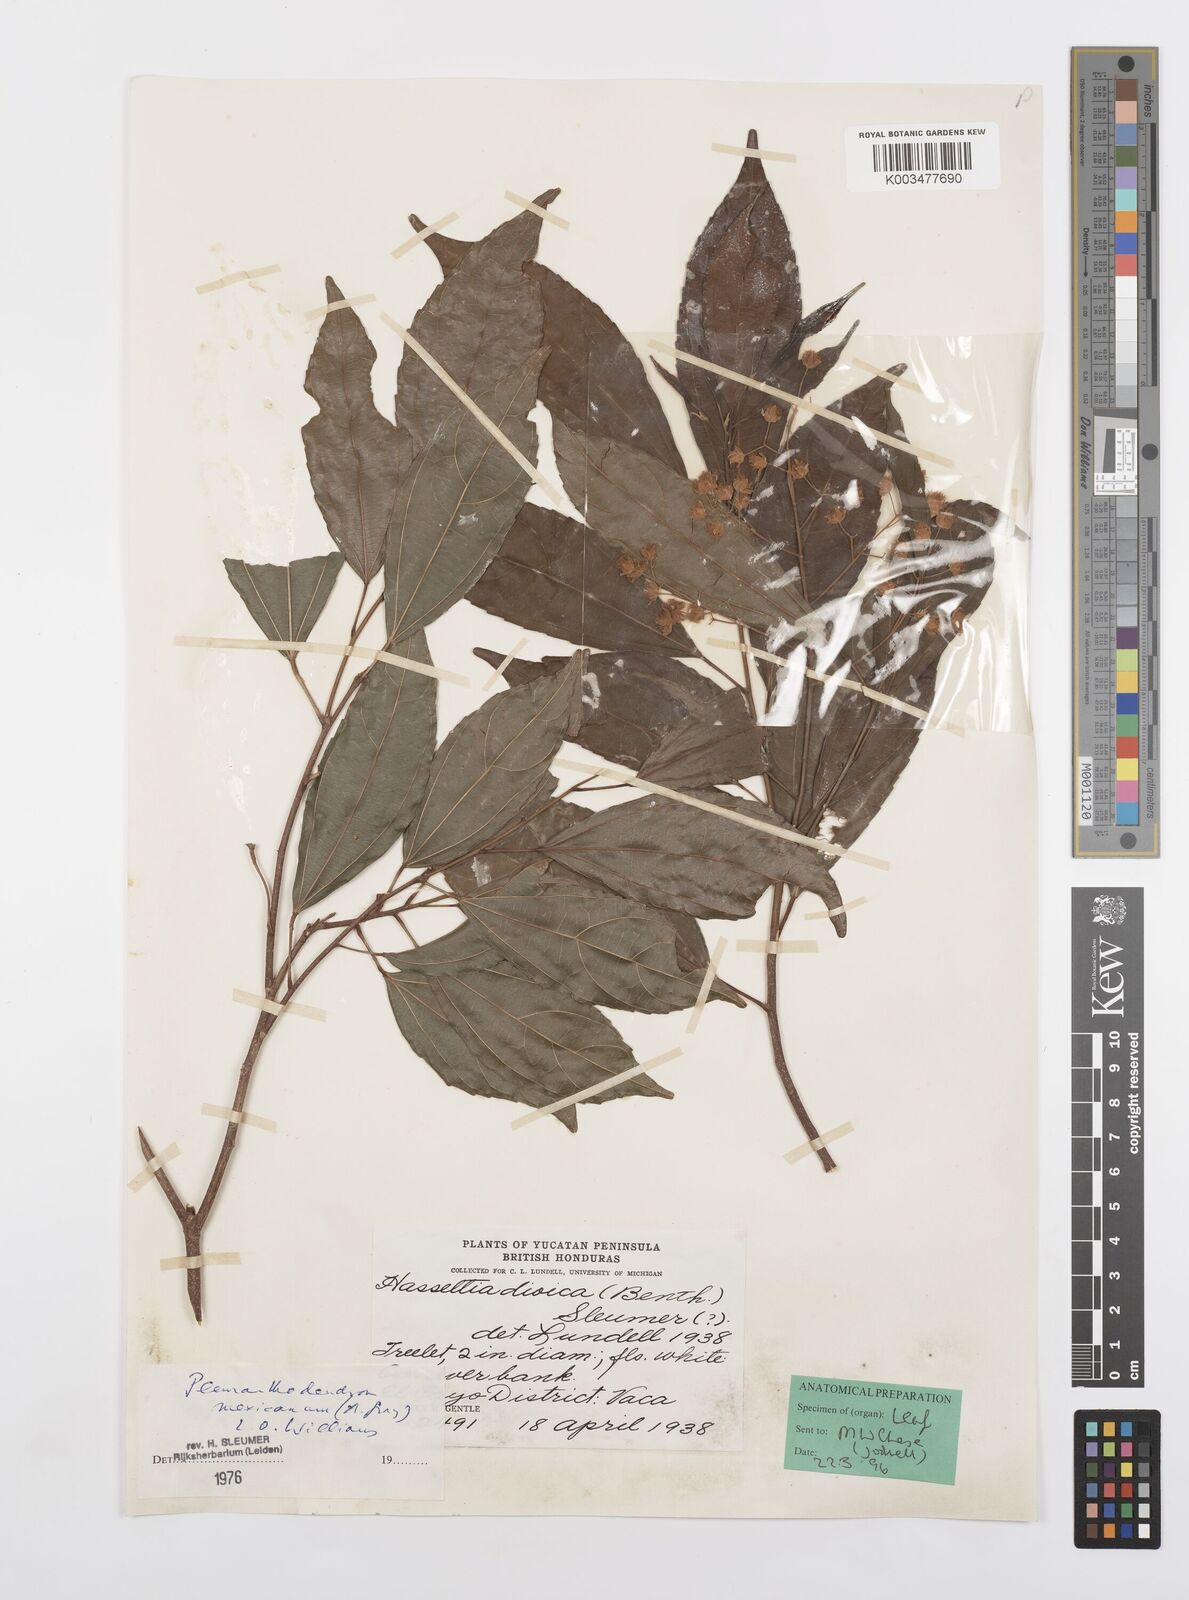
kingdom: Plantae
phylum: Tracheophyta
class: Magnoliopsida
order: Malpighiales
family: Salicaceae
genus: Pleuranthodendron
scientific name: Pleuranthodendron lindenii
